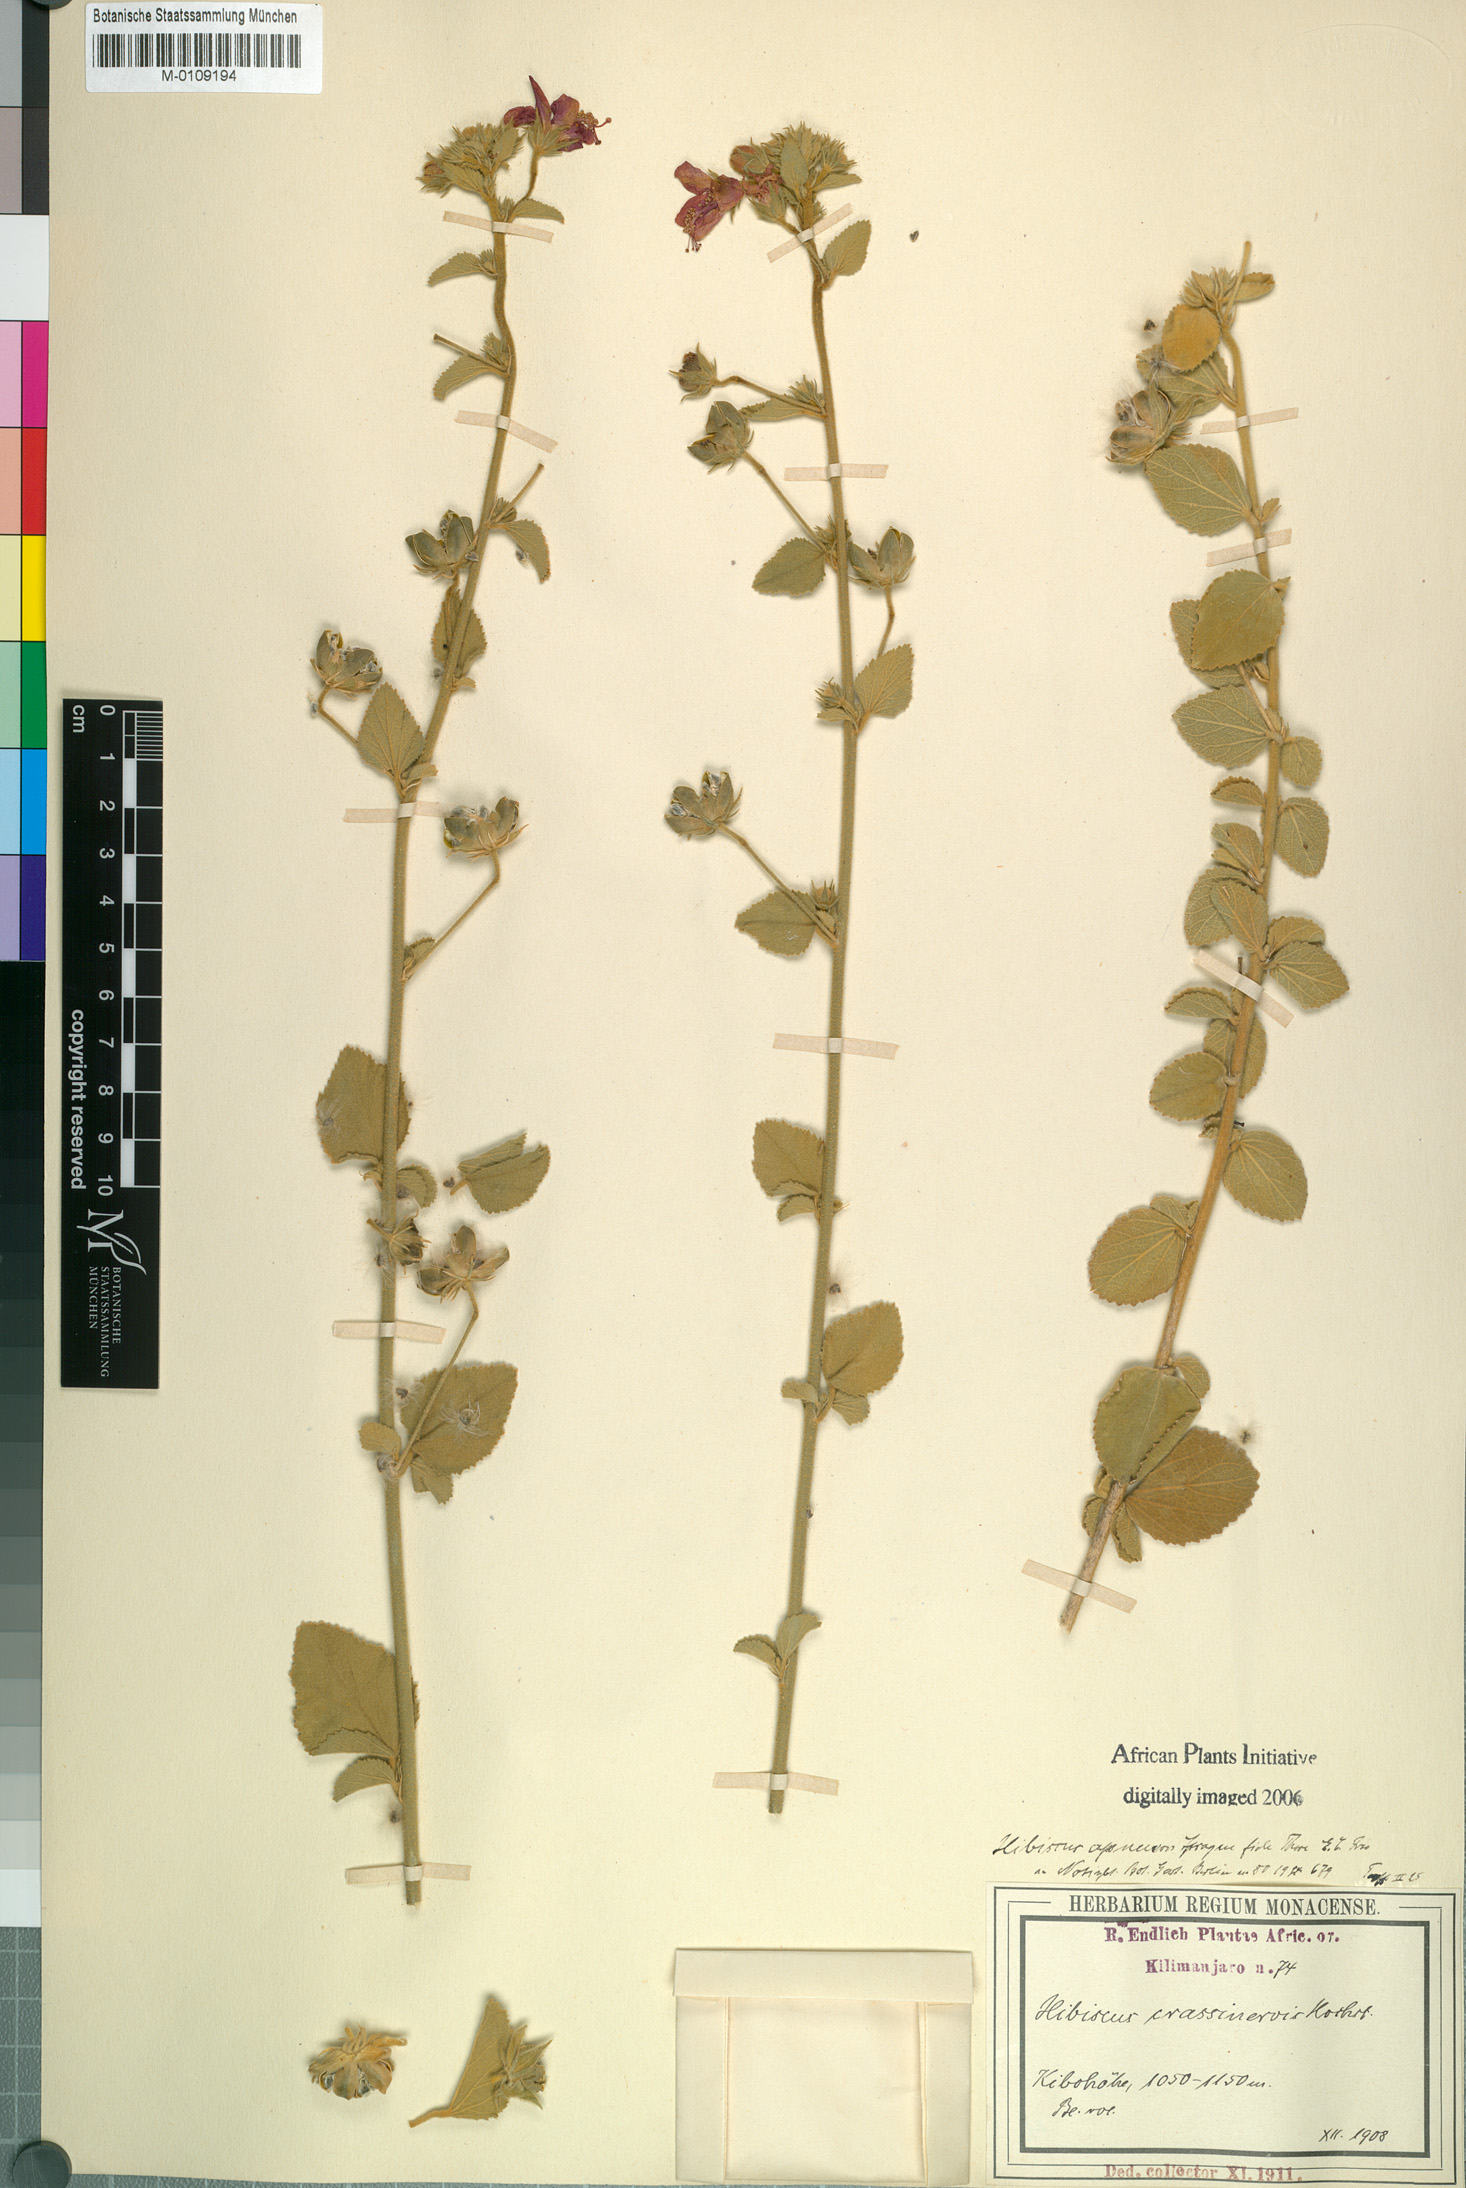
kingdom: Plantae
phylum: Tracheophyta
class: Magnoliopsida
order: Malvales
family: Malvaceae
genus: Hibiscus
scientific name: Hibiscus aponeurus
